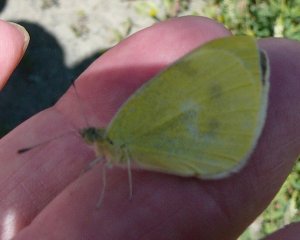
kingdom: Animalia
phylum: Arthropoda
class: Insecta
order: Lepidoptera
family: Pieridae
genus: Pieris
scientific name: Pieris rapae
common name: Cabbage White
